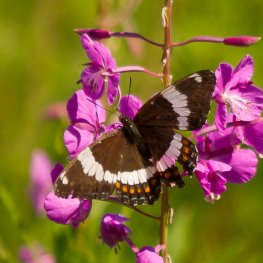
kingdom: Animalia
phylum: Arthropoda
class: Insecta
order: Lepidoptera
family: Nymphalidae
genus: Limenitis
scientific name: Limenitis arthemis
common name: Red-spotted Admiral
